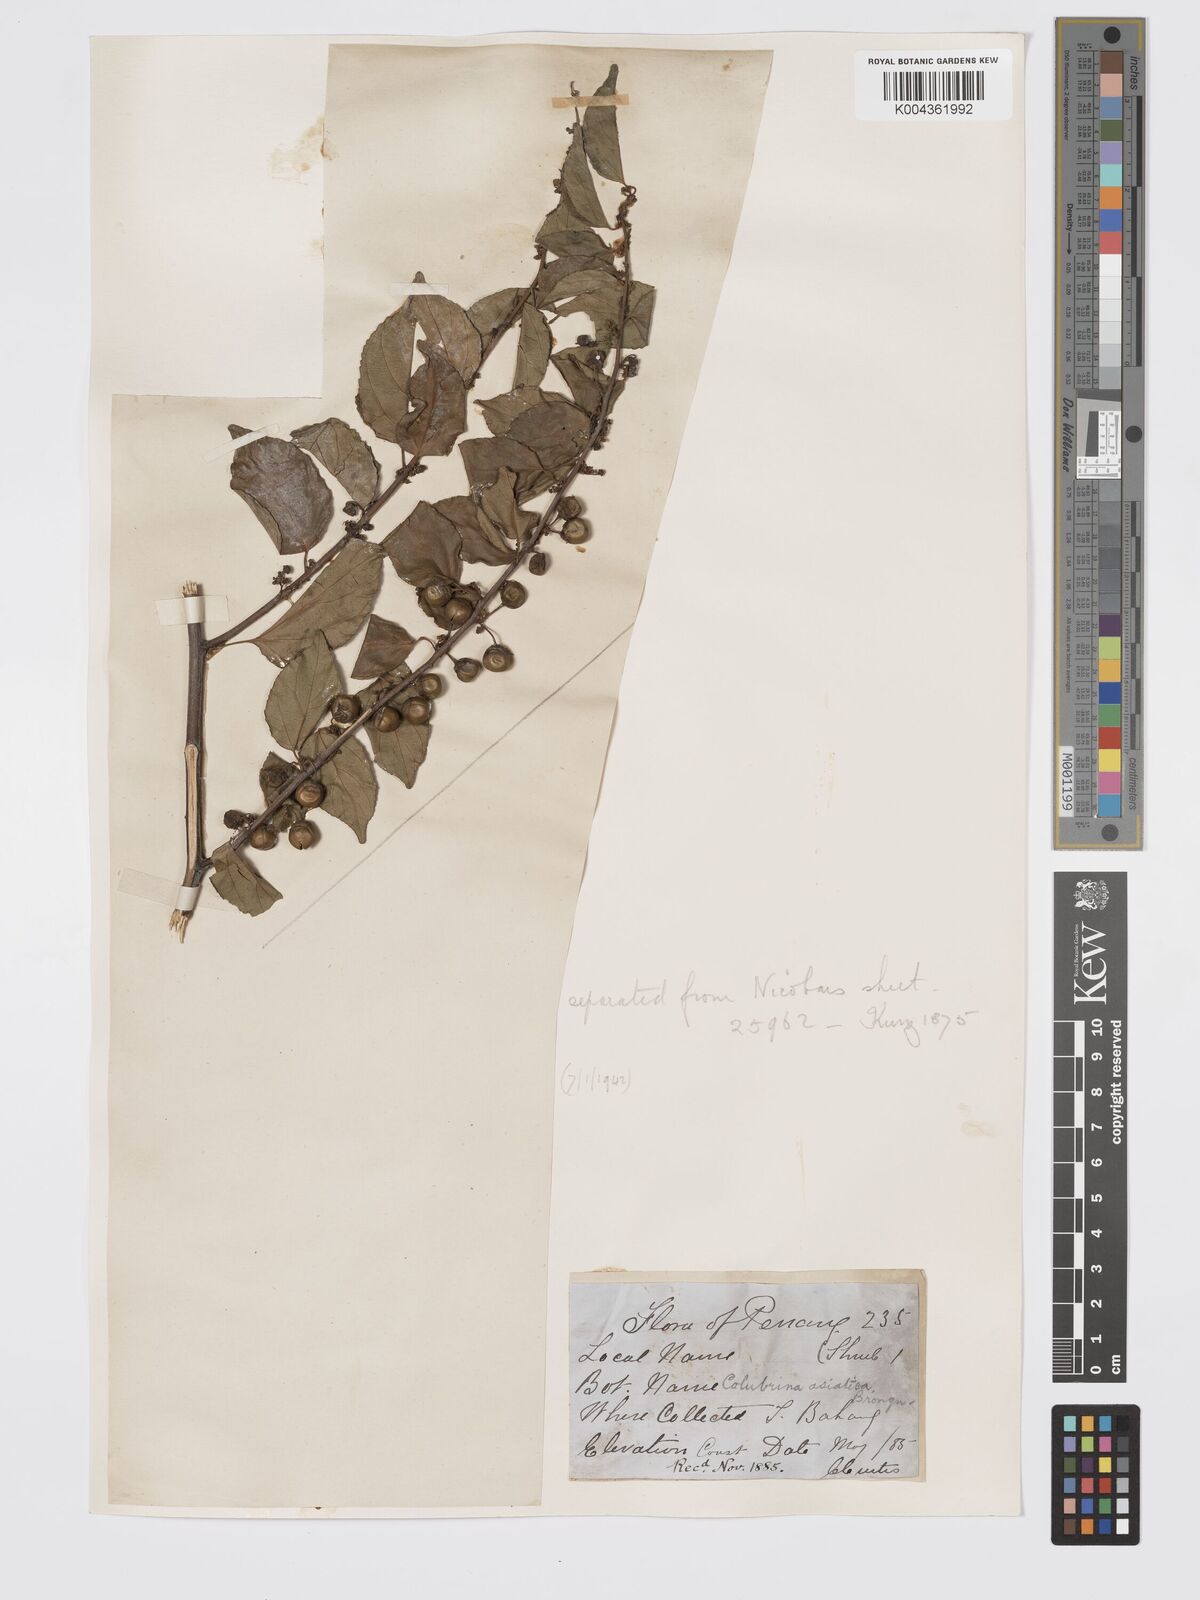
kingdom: Plantae
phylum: Tracheophyta
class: Magnoliopsida
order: Rosales
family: Rhamnaceae
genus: Colubrina
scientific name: Colubrina asiatica
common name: Asian nakedwood
